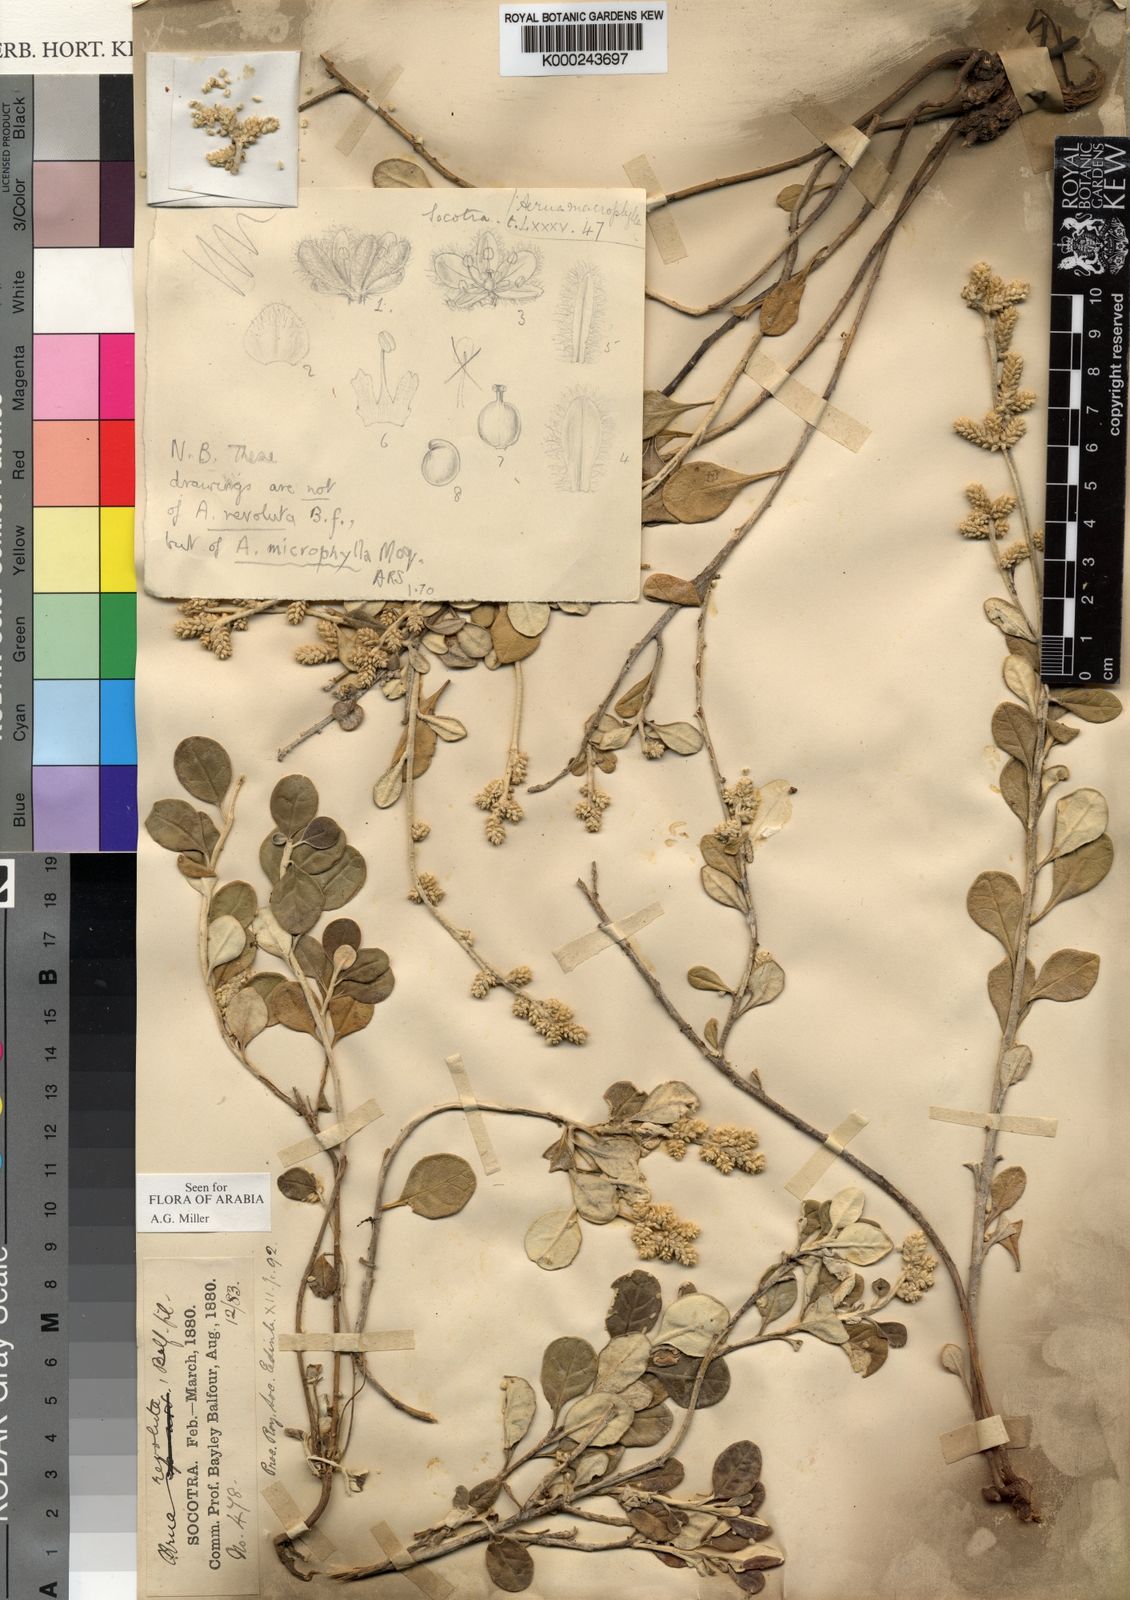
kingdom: Plantae
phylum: Tracheophyta
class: Magnoliopsida
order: Caryophyllales
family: Amaranthaceae
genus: Paraerva
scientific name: Paraerva revoluta
